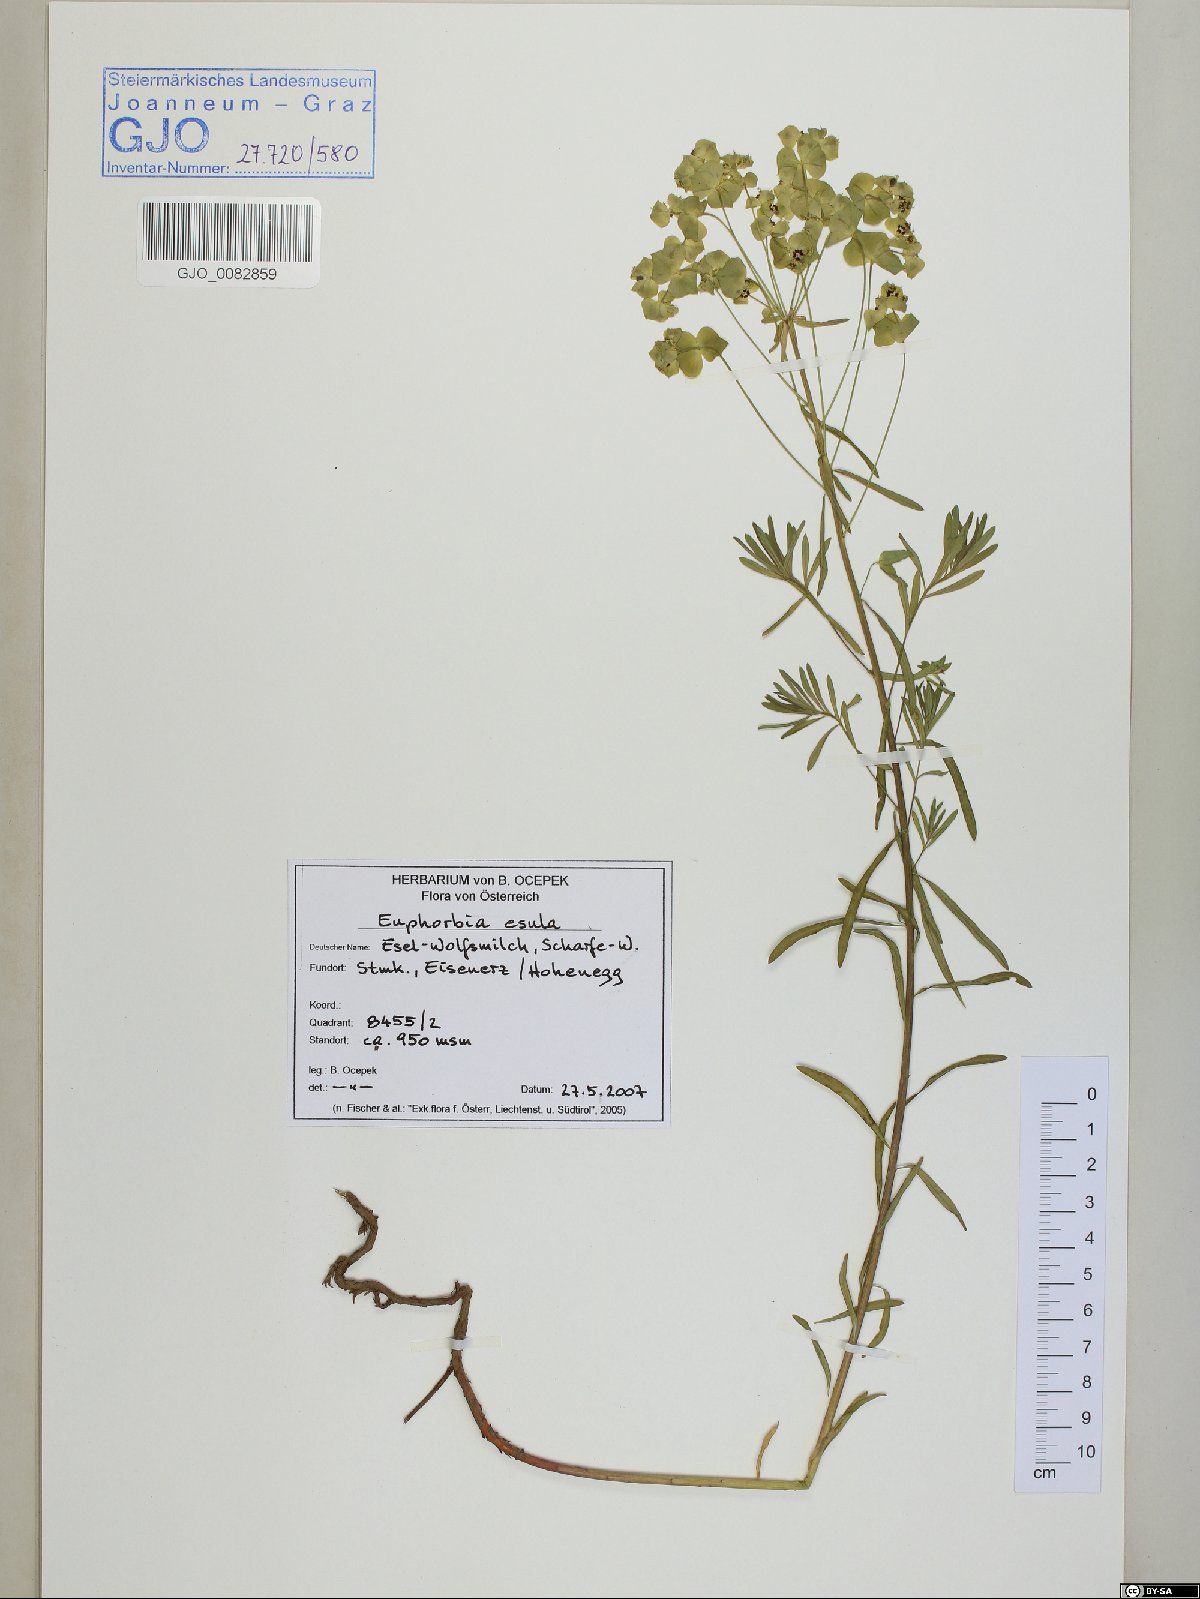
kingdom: Plantae
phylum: Tracheophyta
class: Magnoliopsida
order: Malpighiales
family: Euphorbiaceae
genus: Euphorbia
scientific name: Euphorbia esula
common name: Leafy spurge
